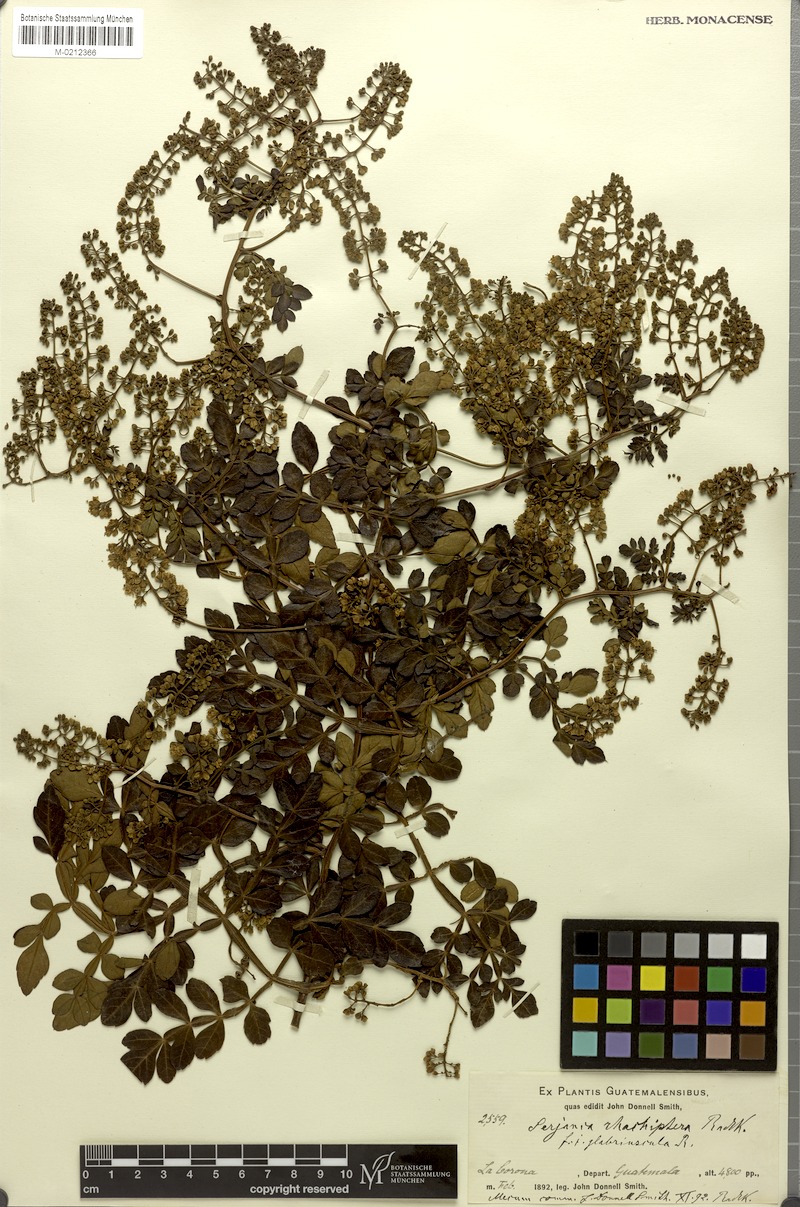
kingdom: Plantae
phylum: Tracheophyta
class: Magnoliopsida
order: Sapindales
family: Sapindaceae
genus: Serjania
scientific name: Serjania rhachiptera
